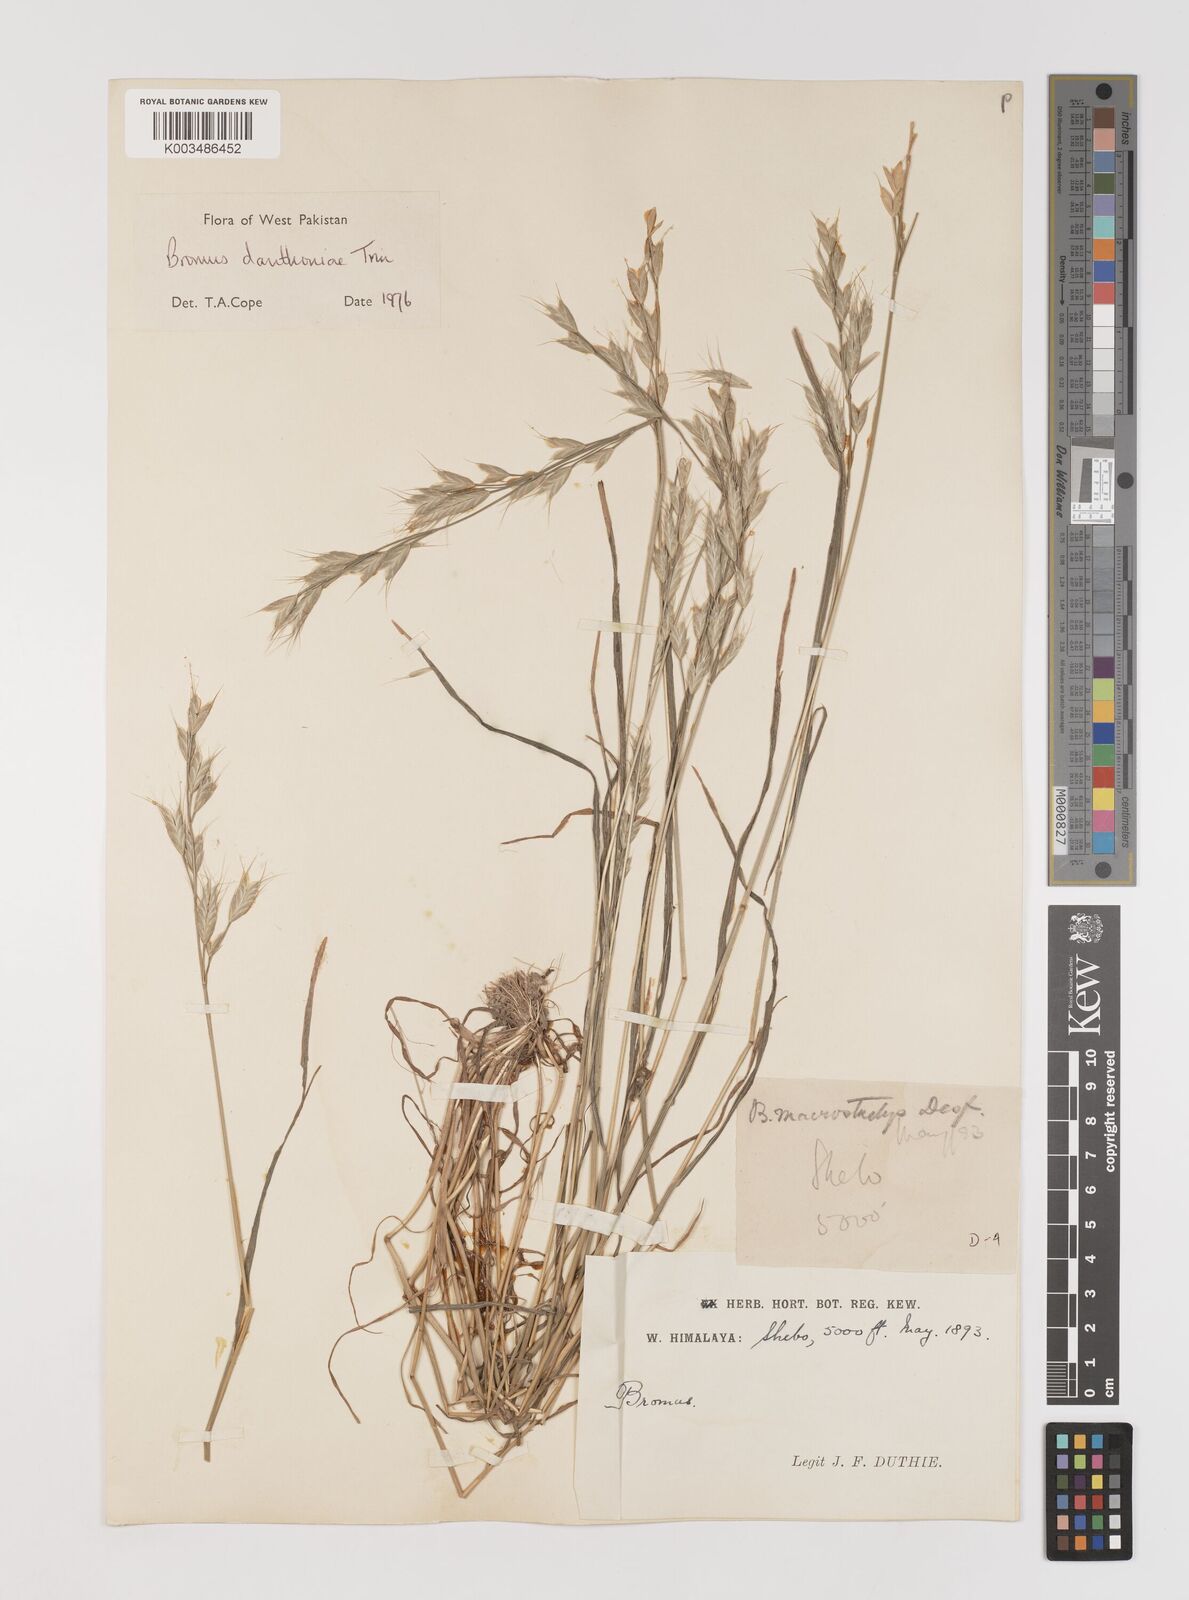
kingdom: Plantae
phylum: Tracheophyta
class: Liliopsida
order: Poales
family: Poaceae
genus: Bromus
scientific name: Bromus danthoniae
